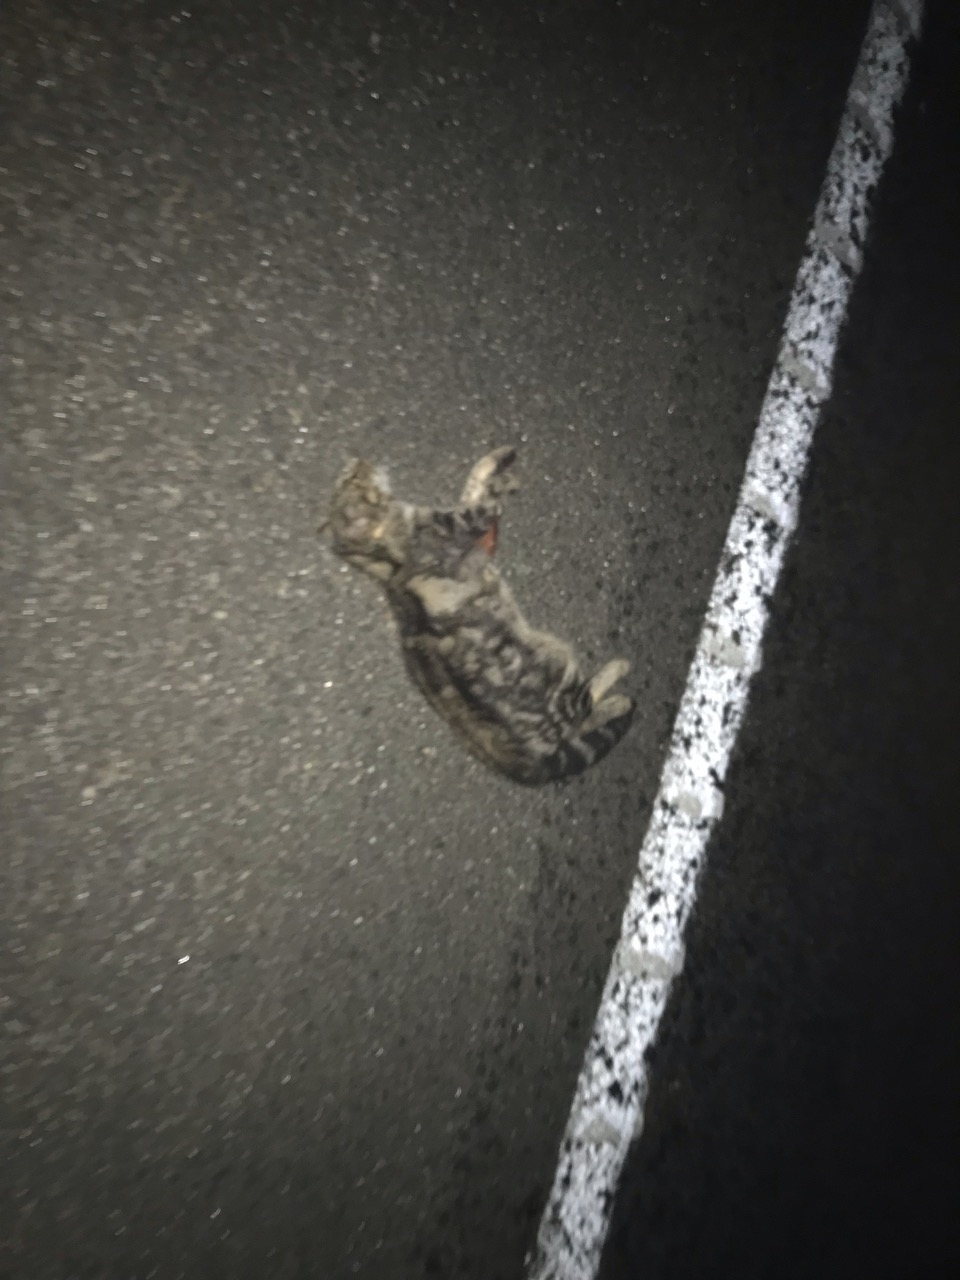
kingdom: Animalia
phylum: Chordata
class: Mammalia
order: Carnivora
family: Felidae
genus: Felis
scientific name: Felis catus
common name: Domestic cat
